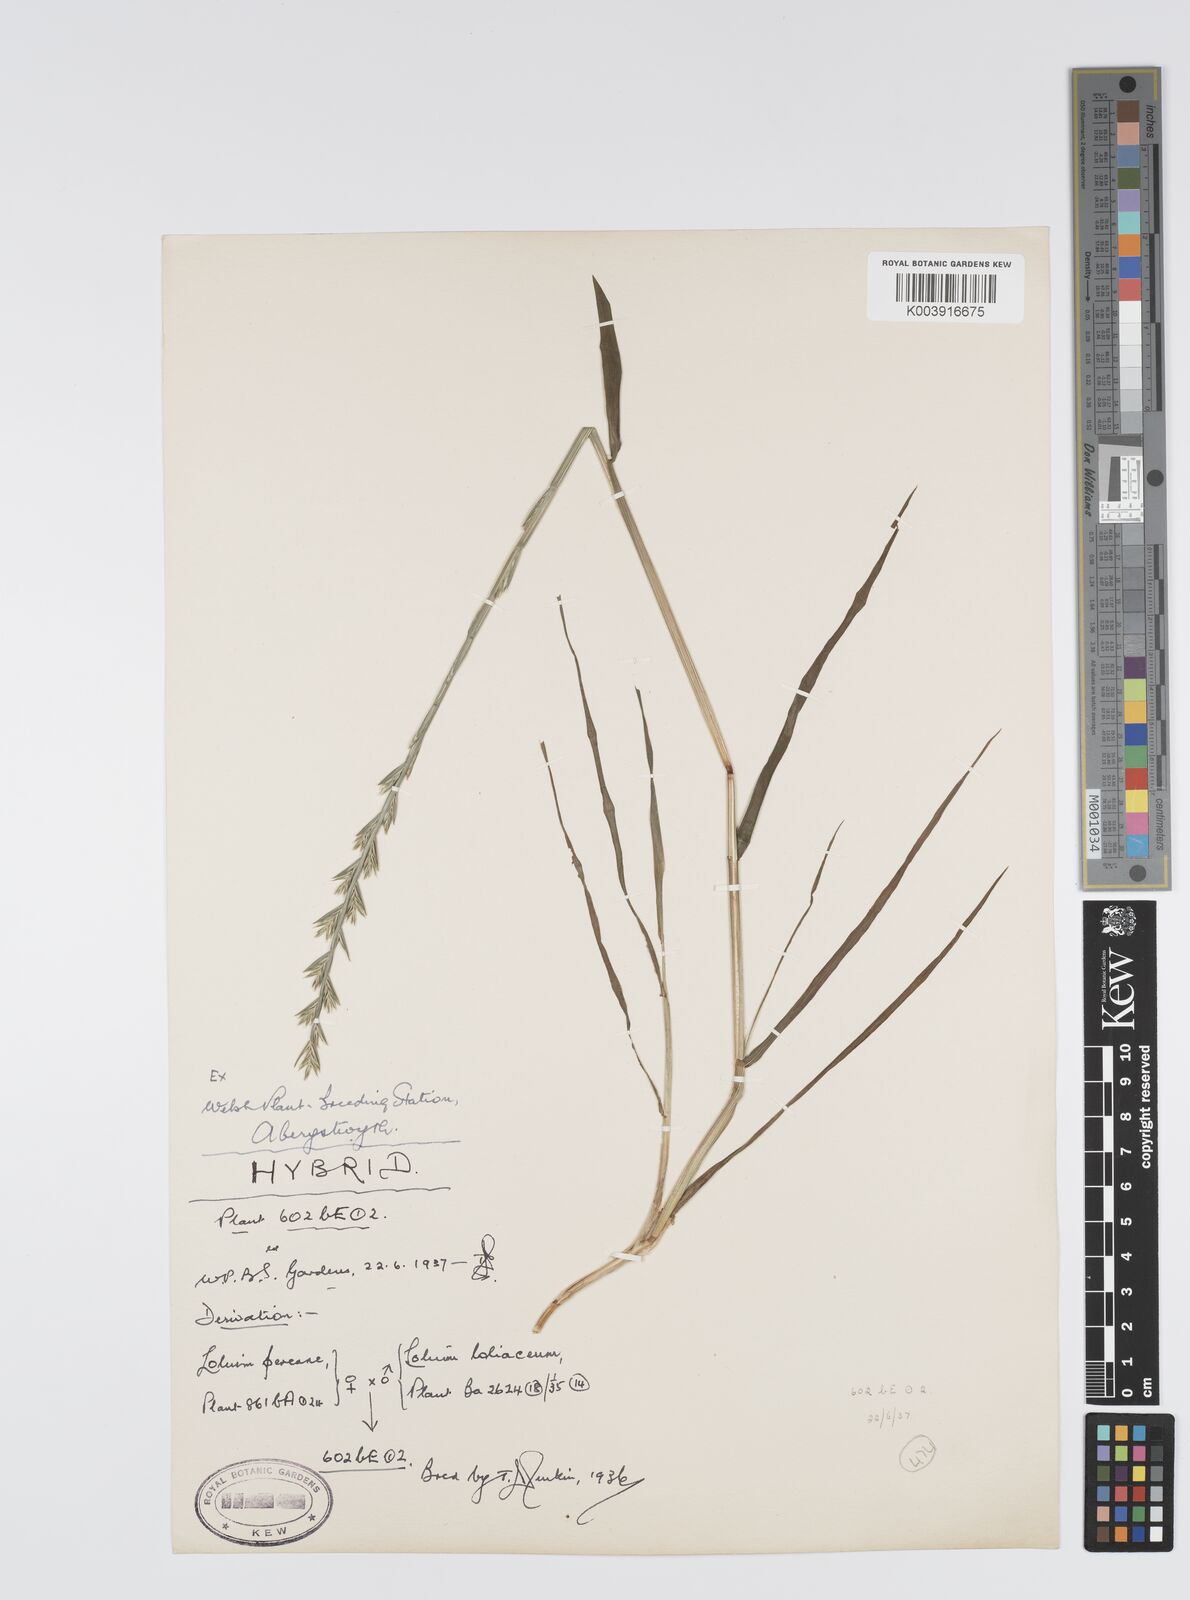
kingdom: Plantae
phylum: Tracheophyta
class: Liliopsida
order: Poales
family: Poaceae
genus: Lolium
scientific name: Lolium perenne
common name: Perennial ryegrass
